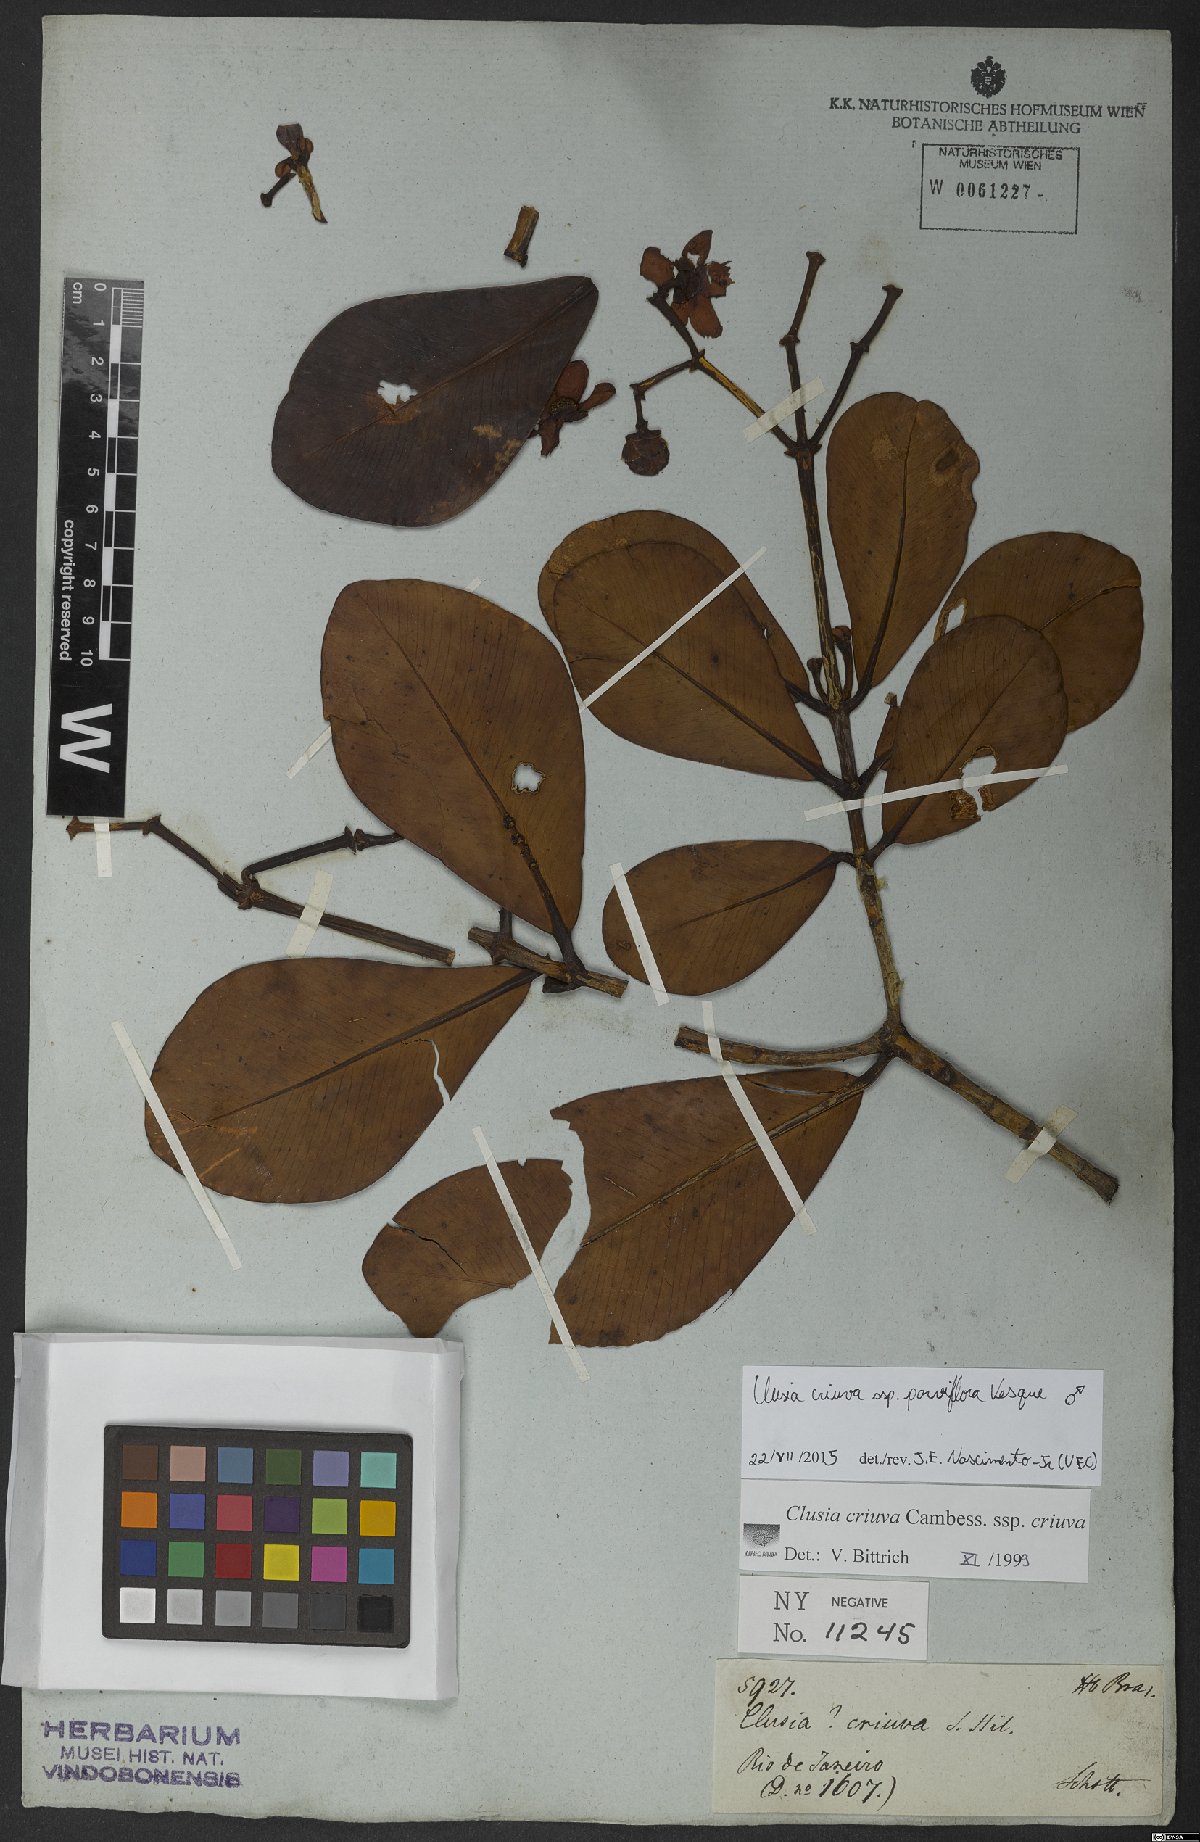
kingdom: Plantae
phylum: Tracheophyta
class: Magnoliopsida
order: Malpighiales
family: Clusiaceae
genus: Clusia
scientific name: Clusia criuva
